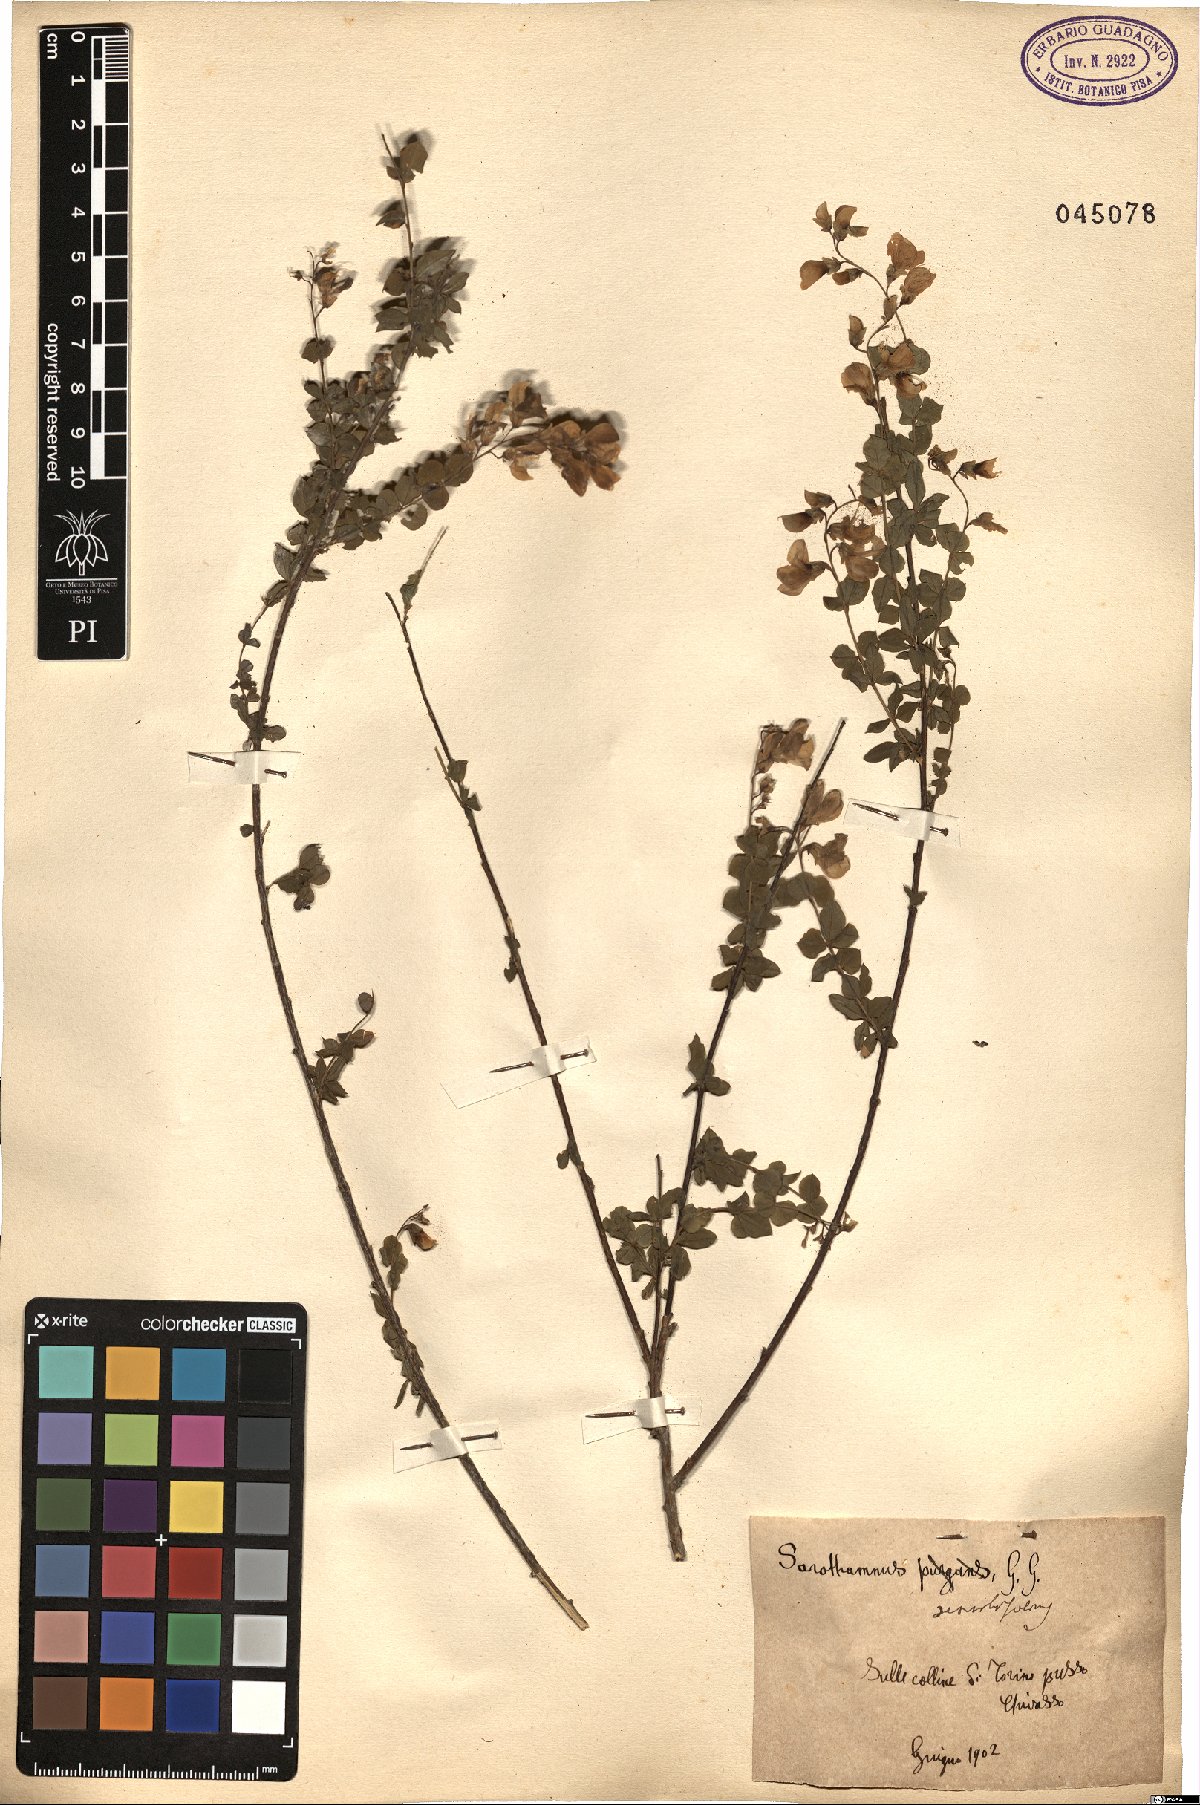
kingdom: Plantae
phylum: Tracheophyta
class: Magnoliopsida
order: Fabales
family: Fabaceae
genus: Genista
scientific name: Genista scorpius
